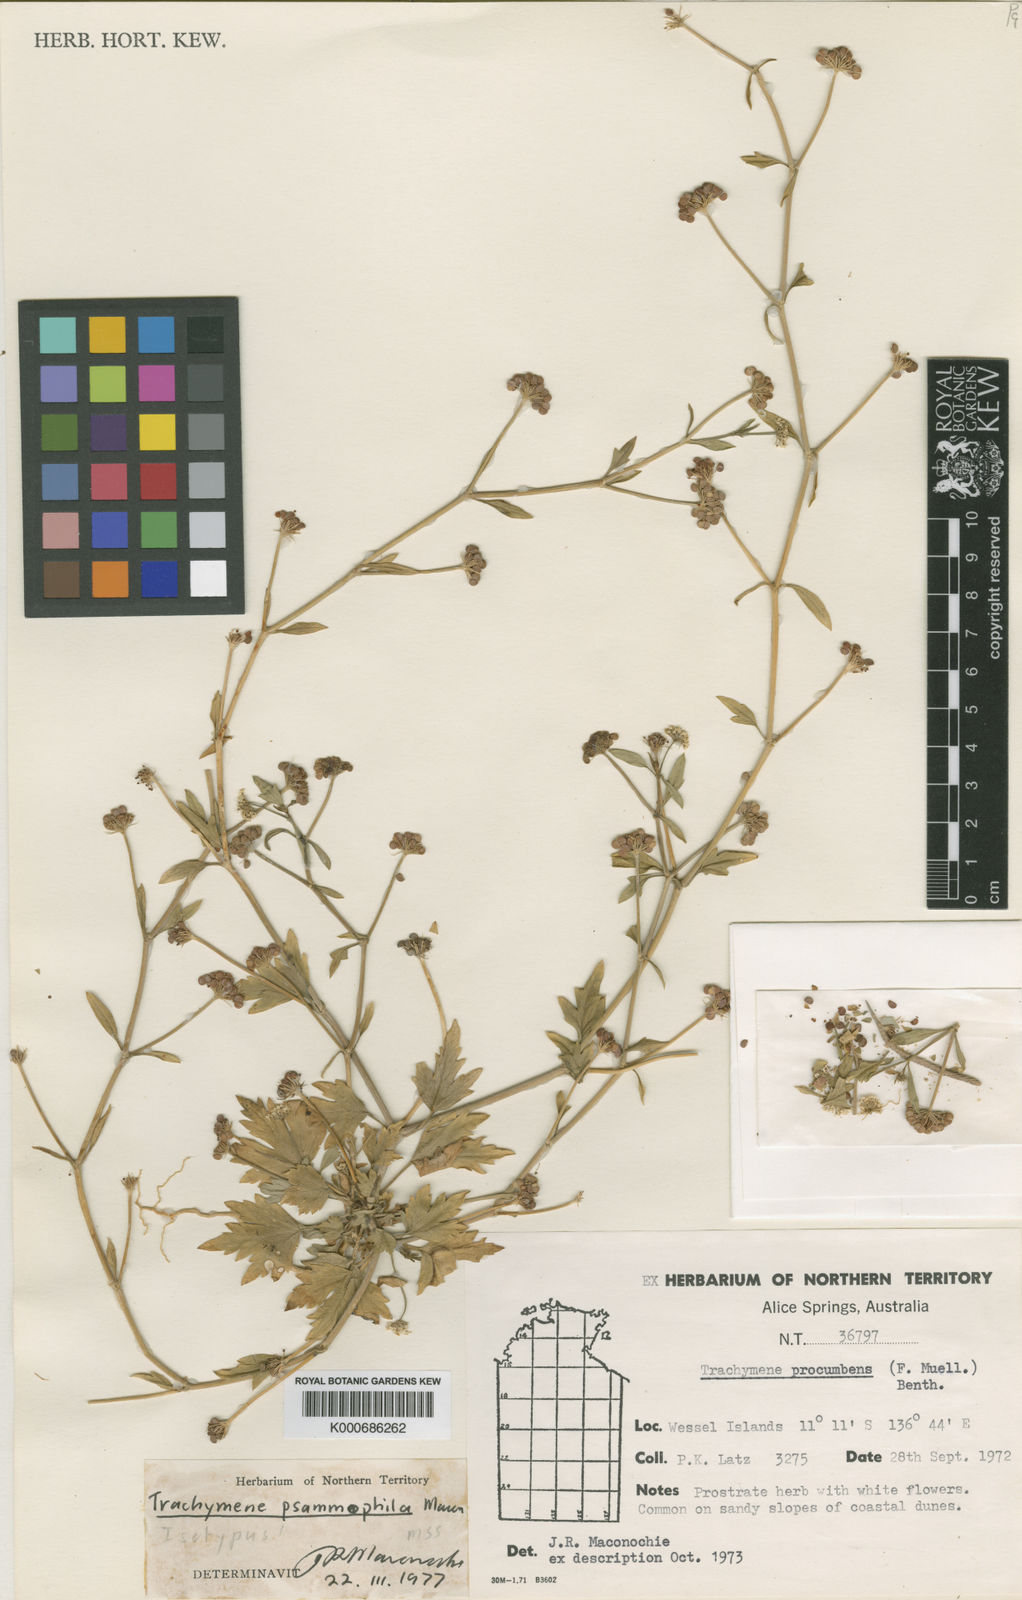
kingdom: Plantae
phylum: Tracheophyta
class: Magnoliopsida
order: Apiales
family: Araliaceae
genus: Trachymene
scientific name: Trachymene psammophila
